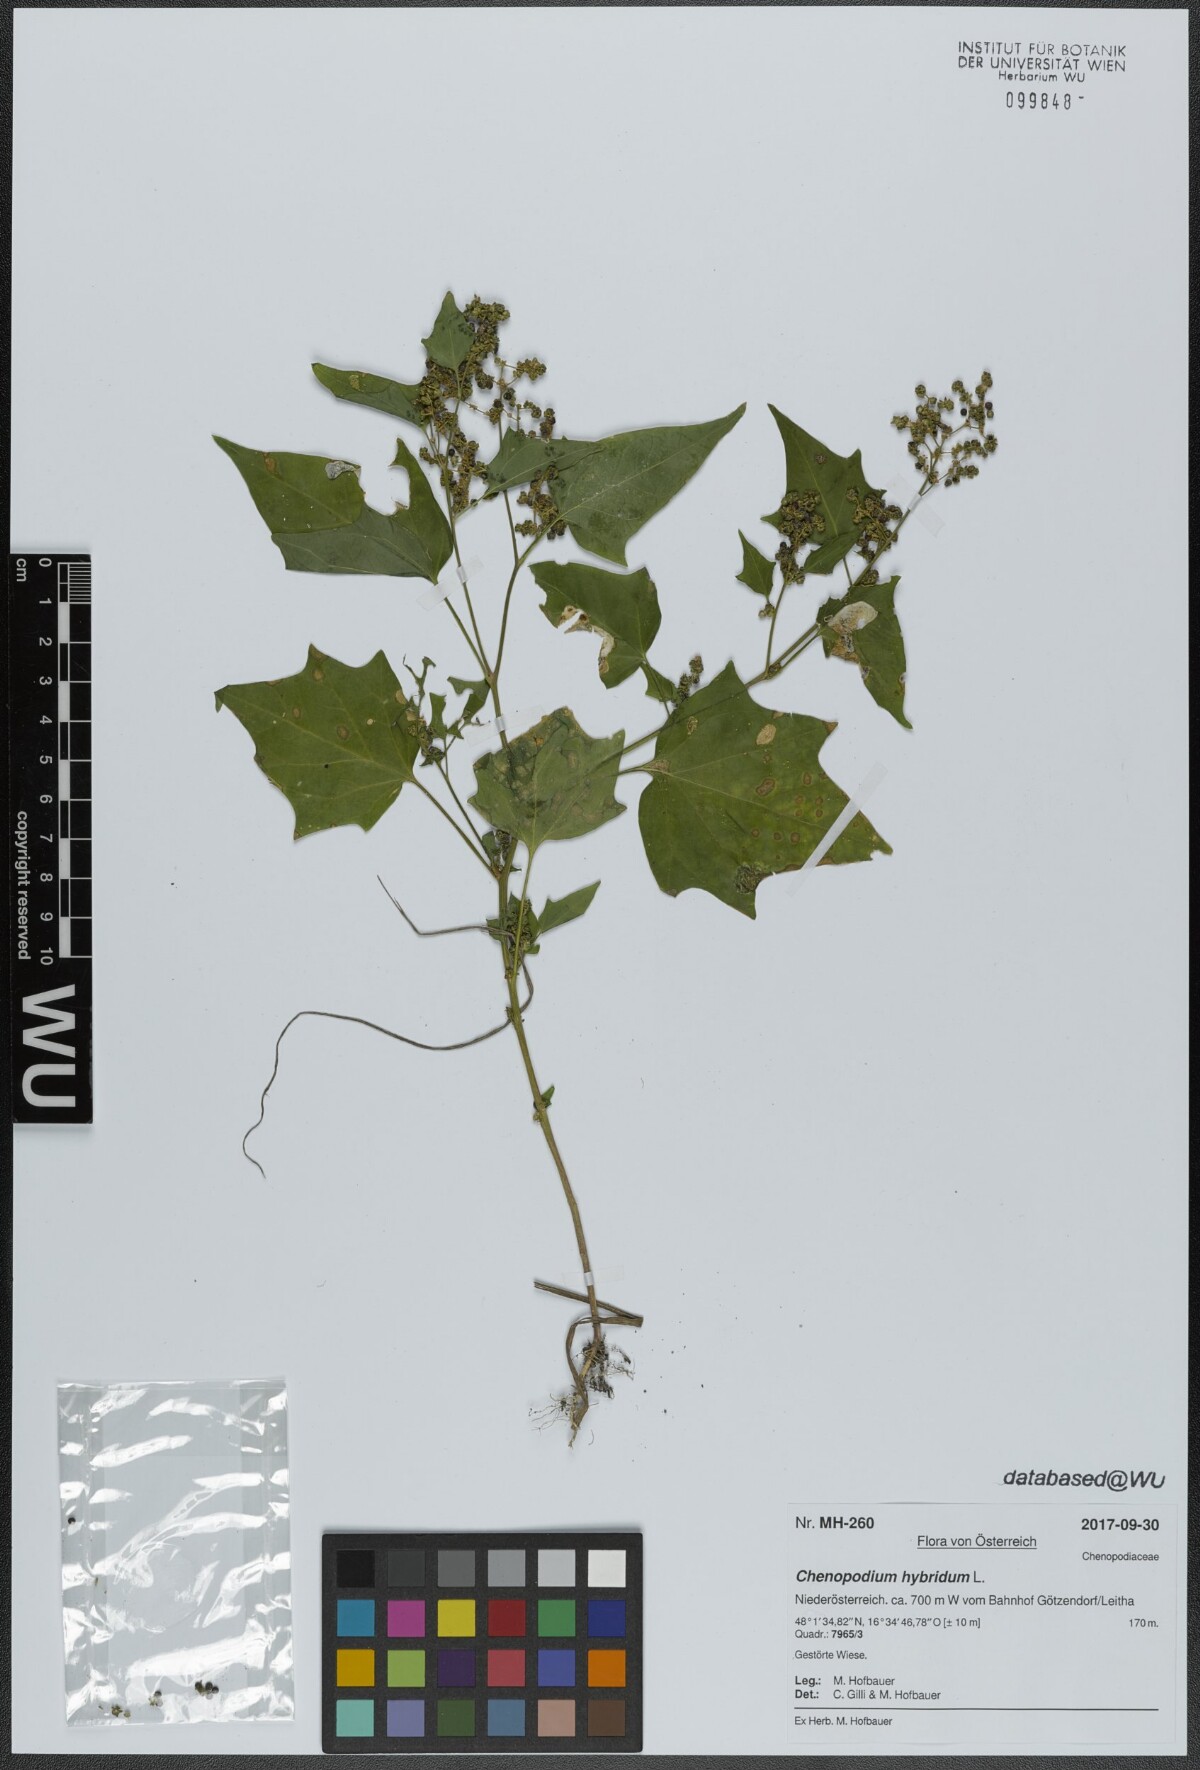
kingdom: Plantae
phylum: Tracheophyta
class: Magnoliopsida
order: Caryophyllales
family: Amaranthaceae
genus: Chenopodiastrum
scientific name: Chenopodiastrum hybridum
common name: Mapleleaf goosefoot
